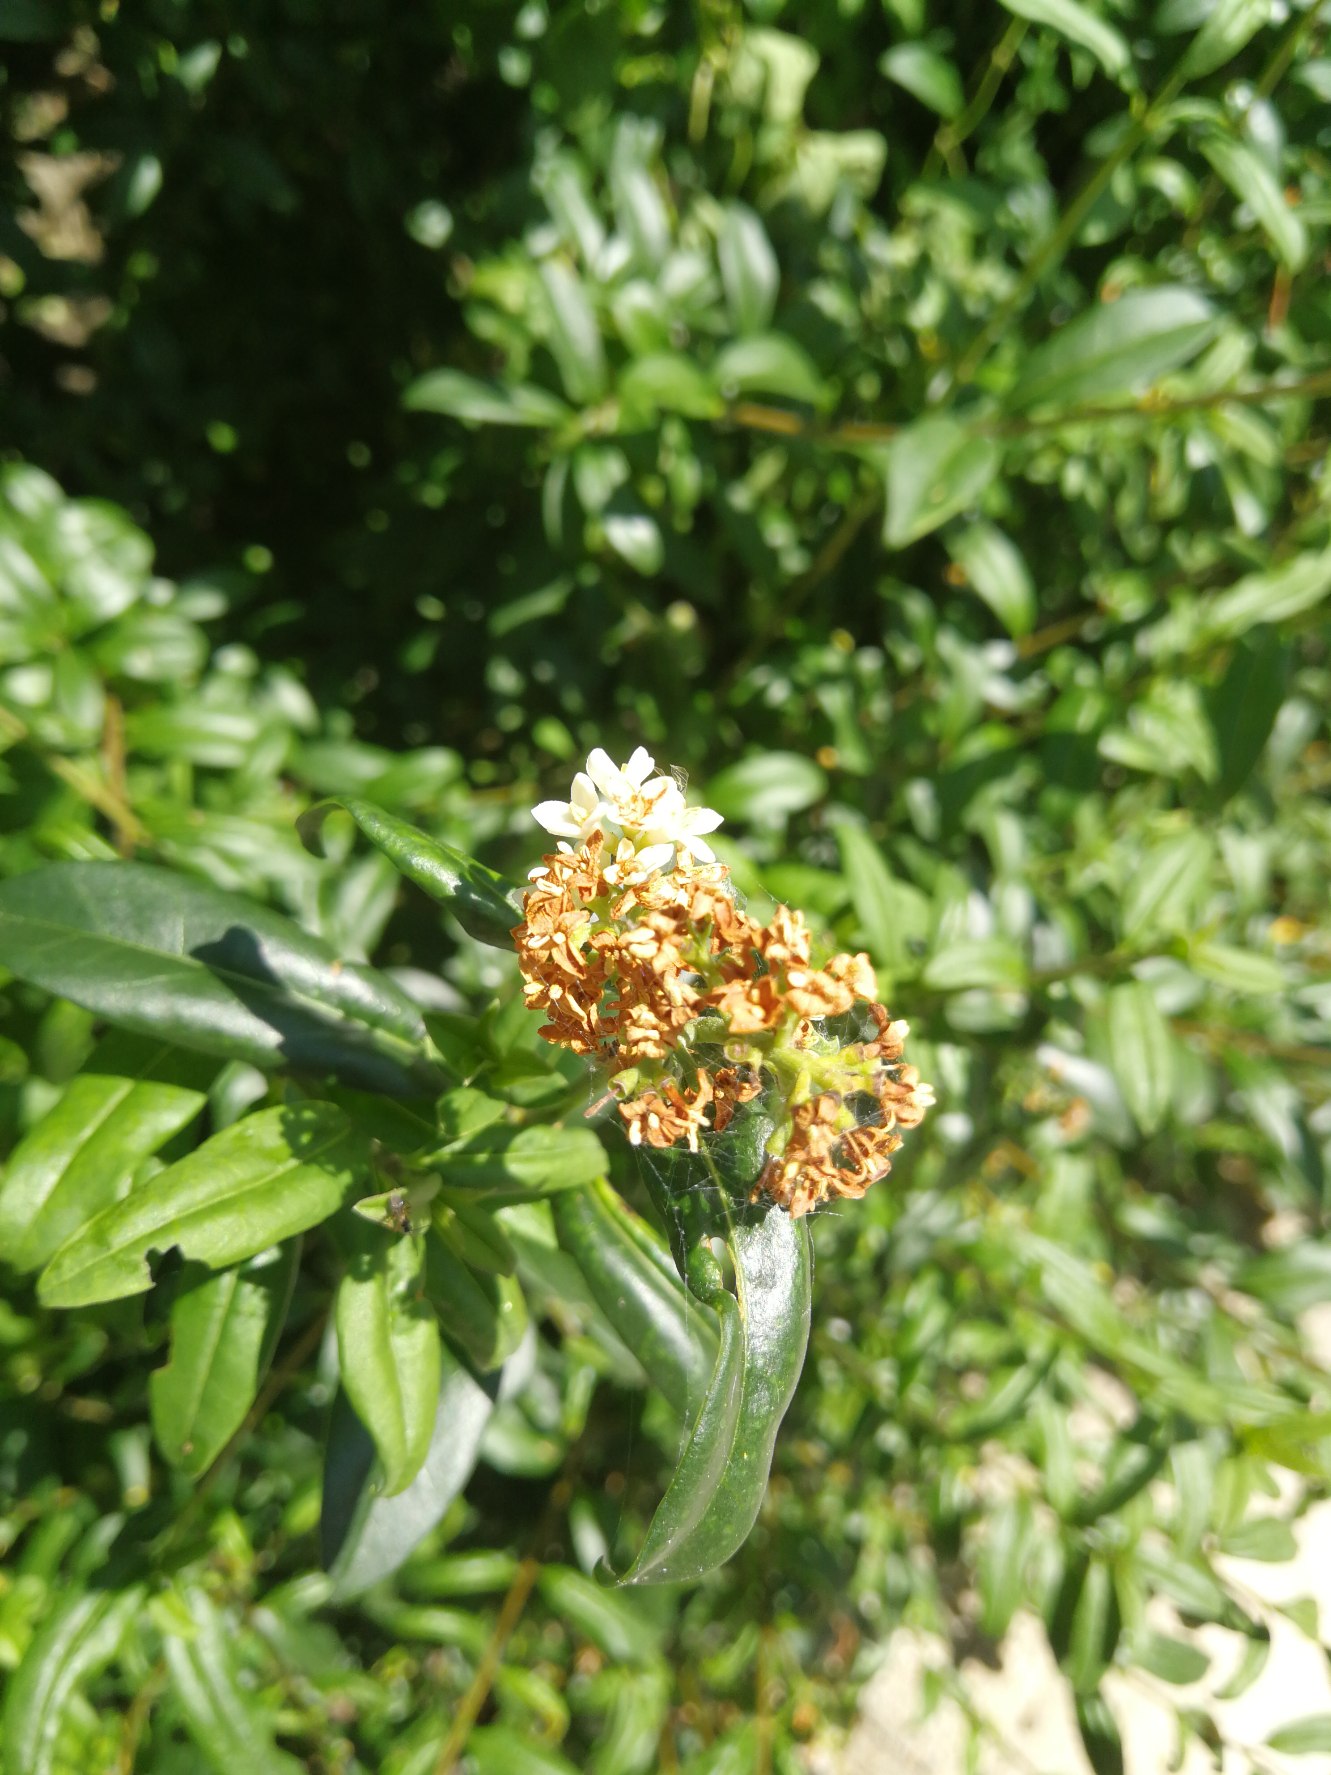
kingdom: Plantae
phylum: Tracheophyta
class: Magnoliopsida
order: Lamiales
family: Oleaceae
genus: Ligustrum
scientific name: Ligustrum vulgare
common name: Liguster
